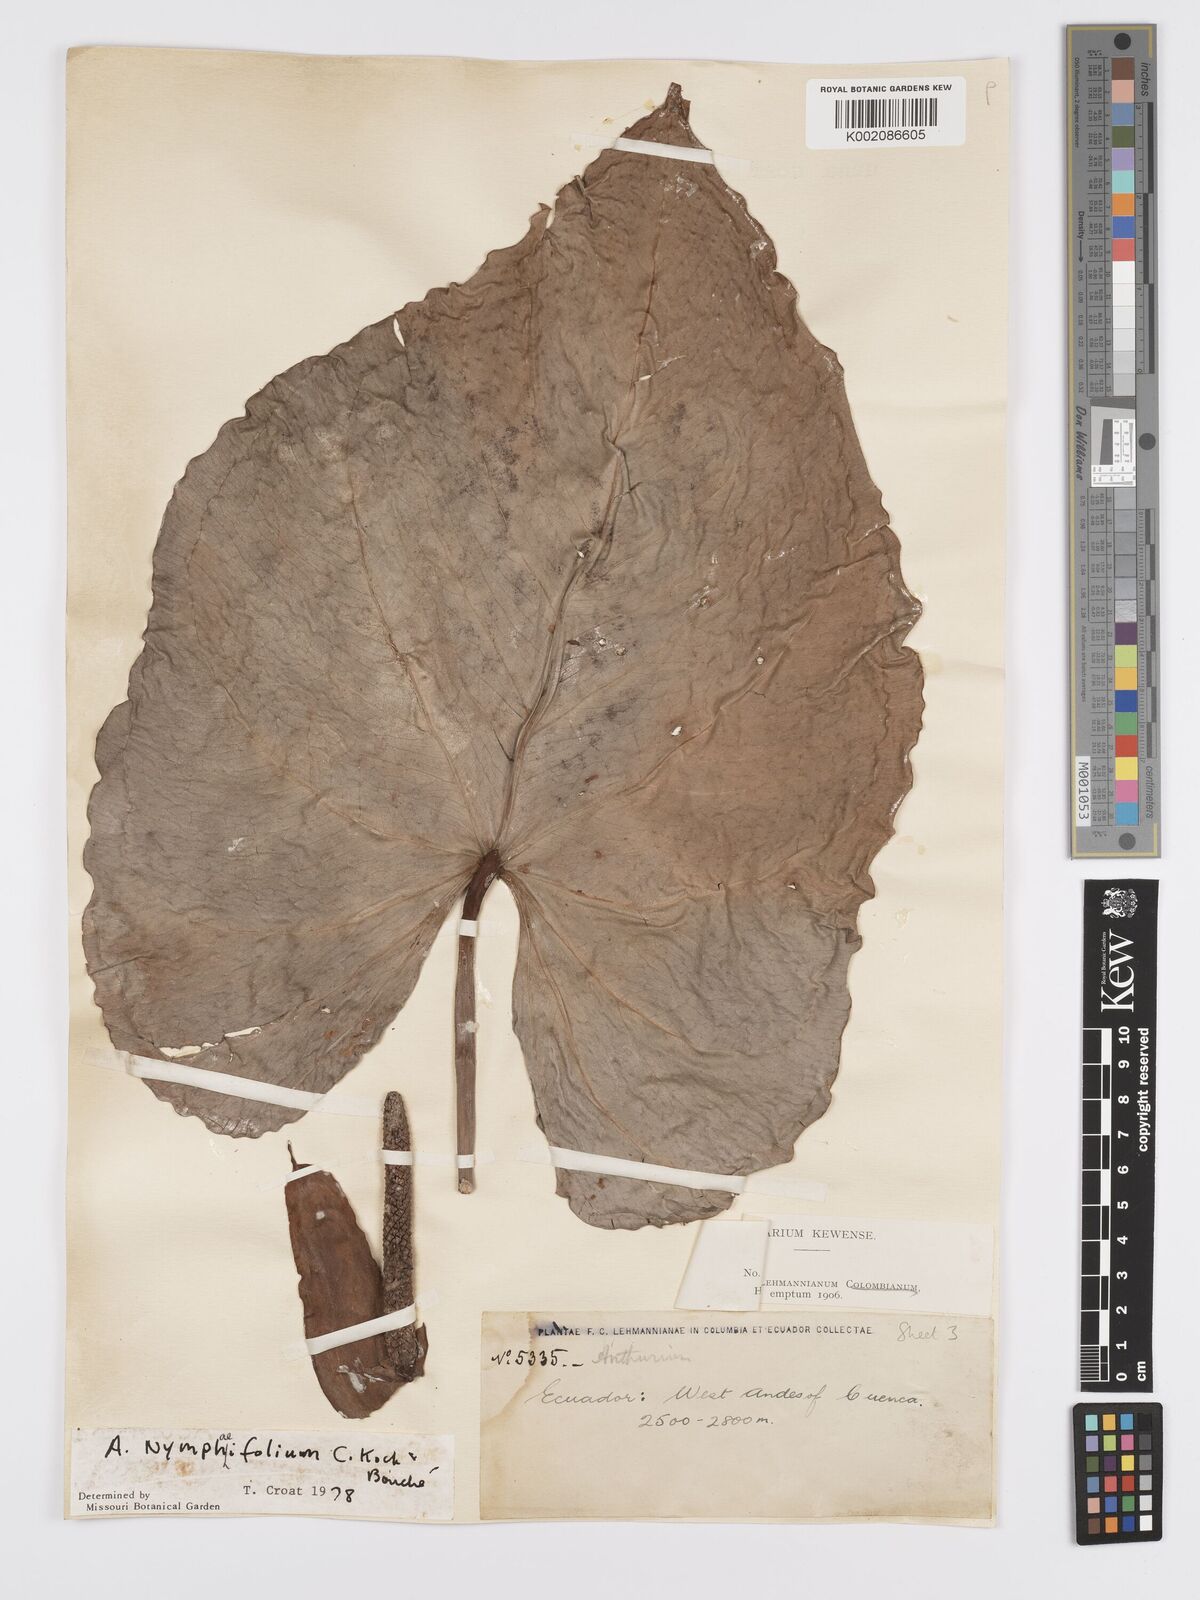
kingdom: Plantae
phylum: Tracheophyta
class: Liliopsida
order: Alismatales
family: Araceae
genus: Anthurium
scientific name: Anthurium nymphaeifolium
